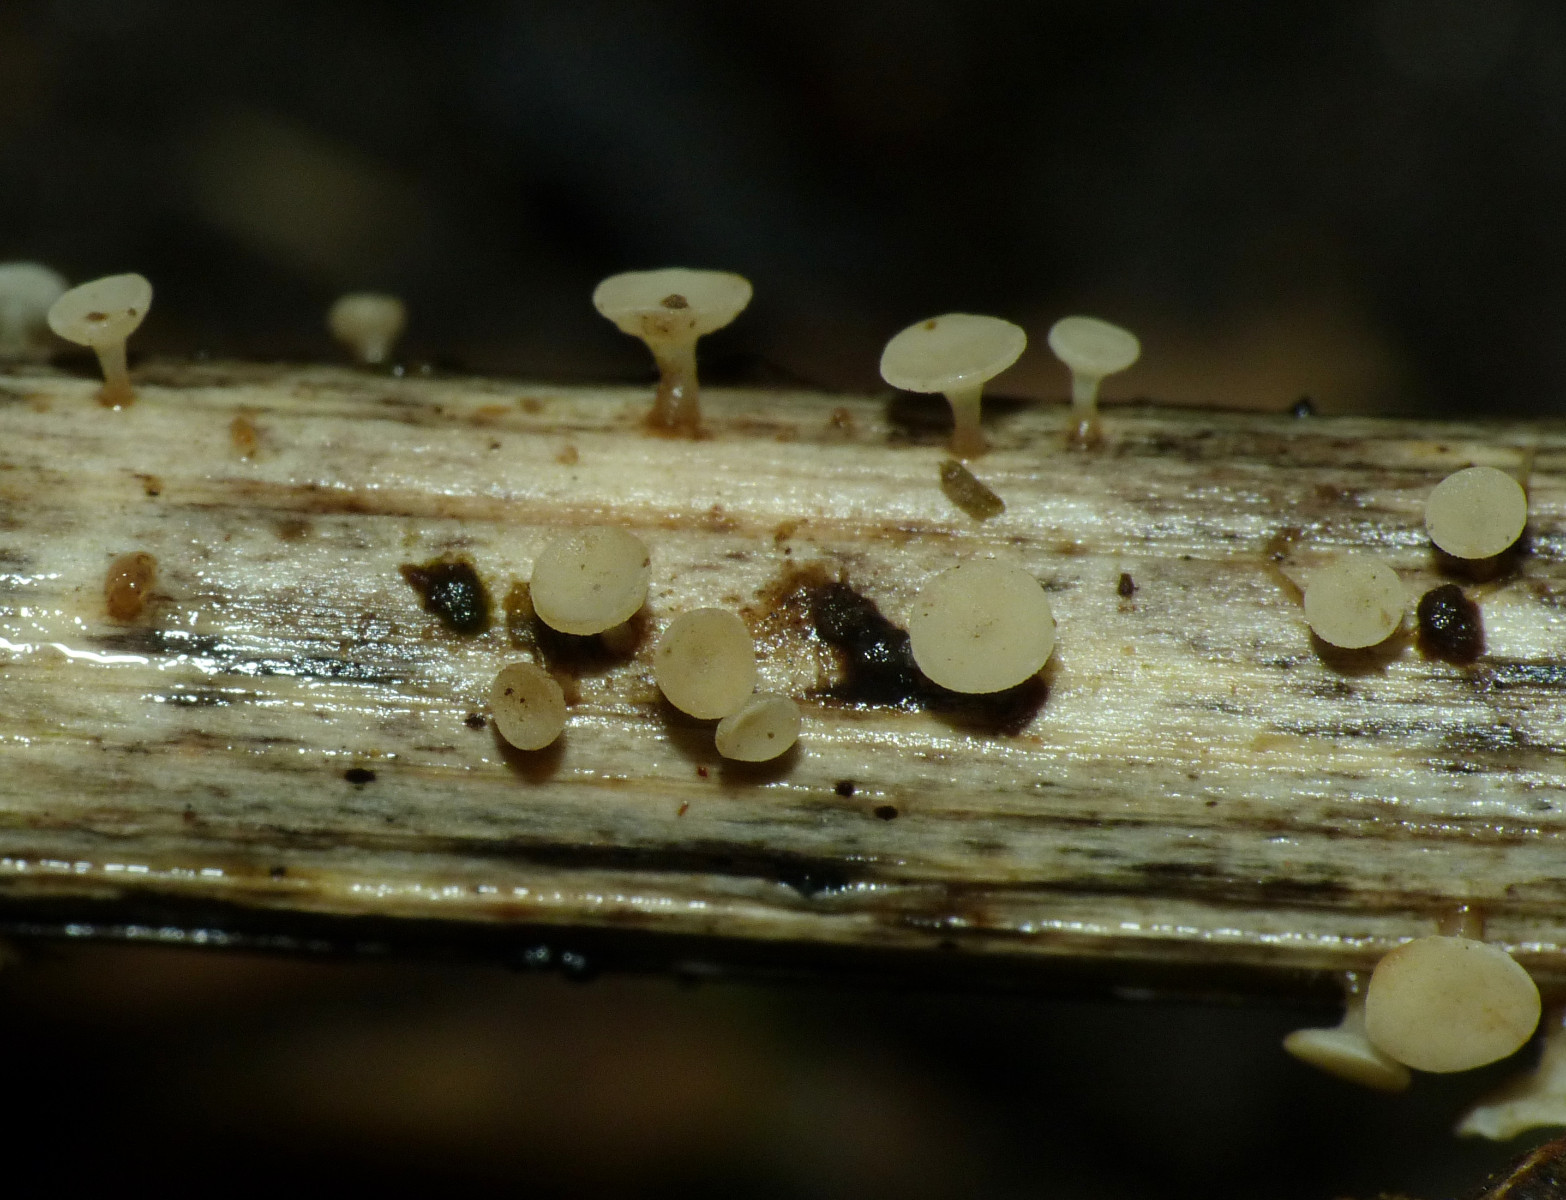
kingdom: Fungi
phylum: Ascomycota
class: Leotiomycetes
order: Helotiales
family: Helotiaceae
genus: Cyathicula
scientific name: Cyathicula cyathoidea
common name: pokal-stilkskive
